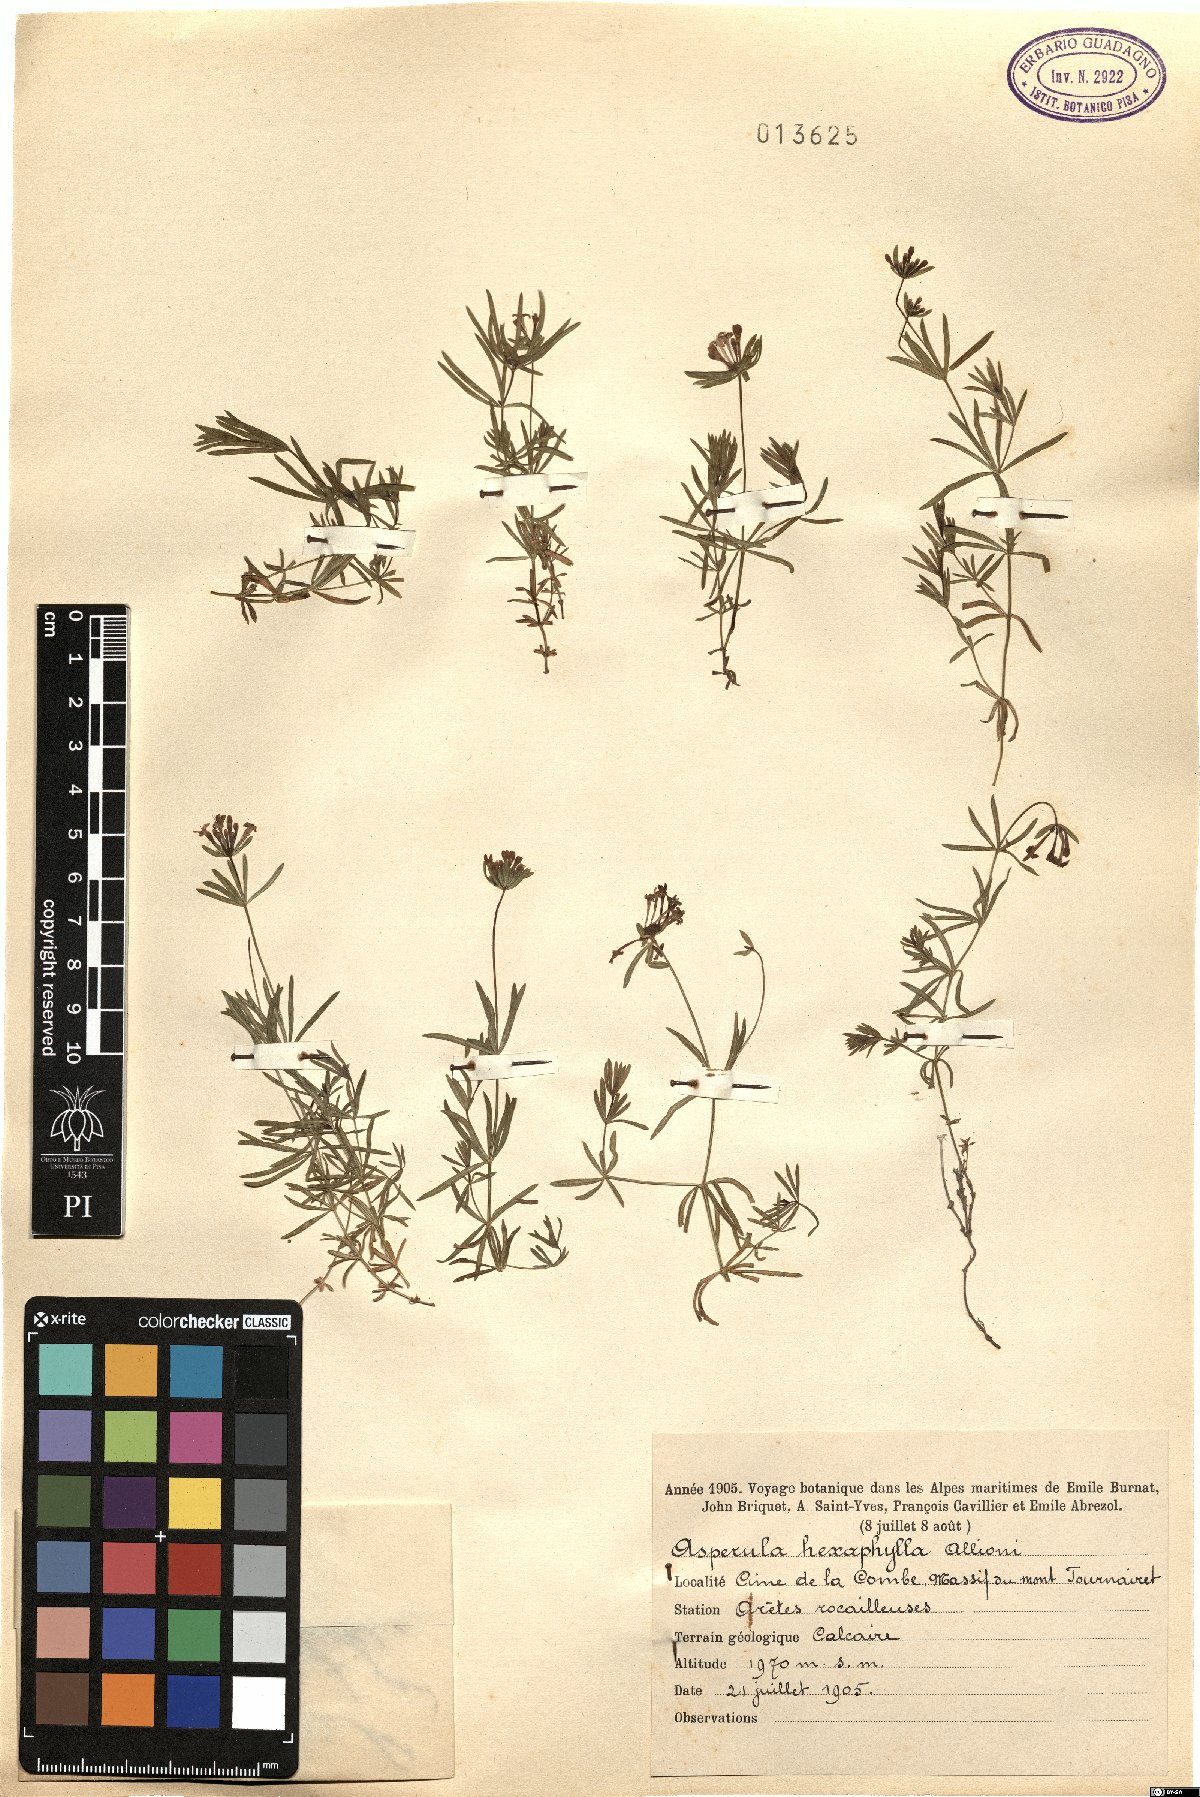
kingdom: Plantae
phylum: Tracheophyta
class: Magnoliopsida
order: Gentianales
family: Rubiaceae
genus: Hexaphylla
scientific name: Hexaphylla allionii
